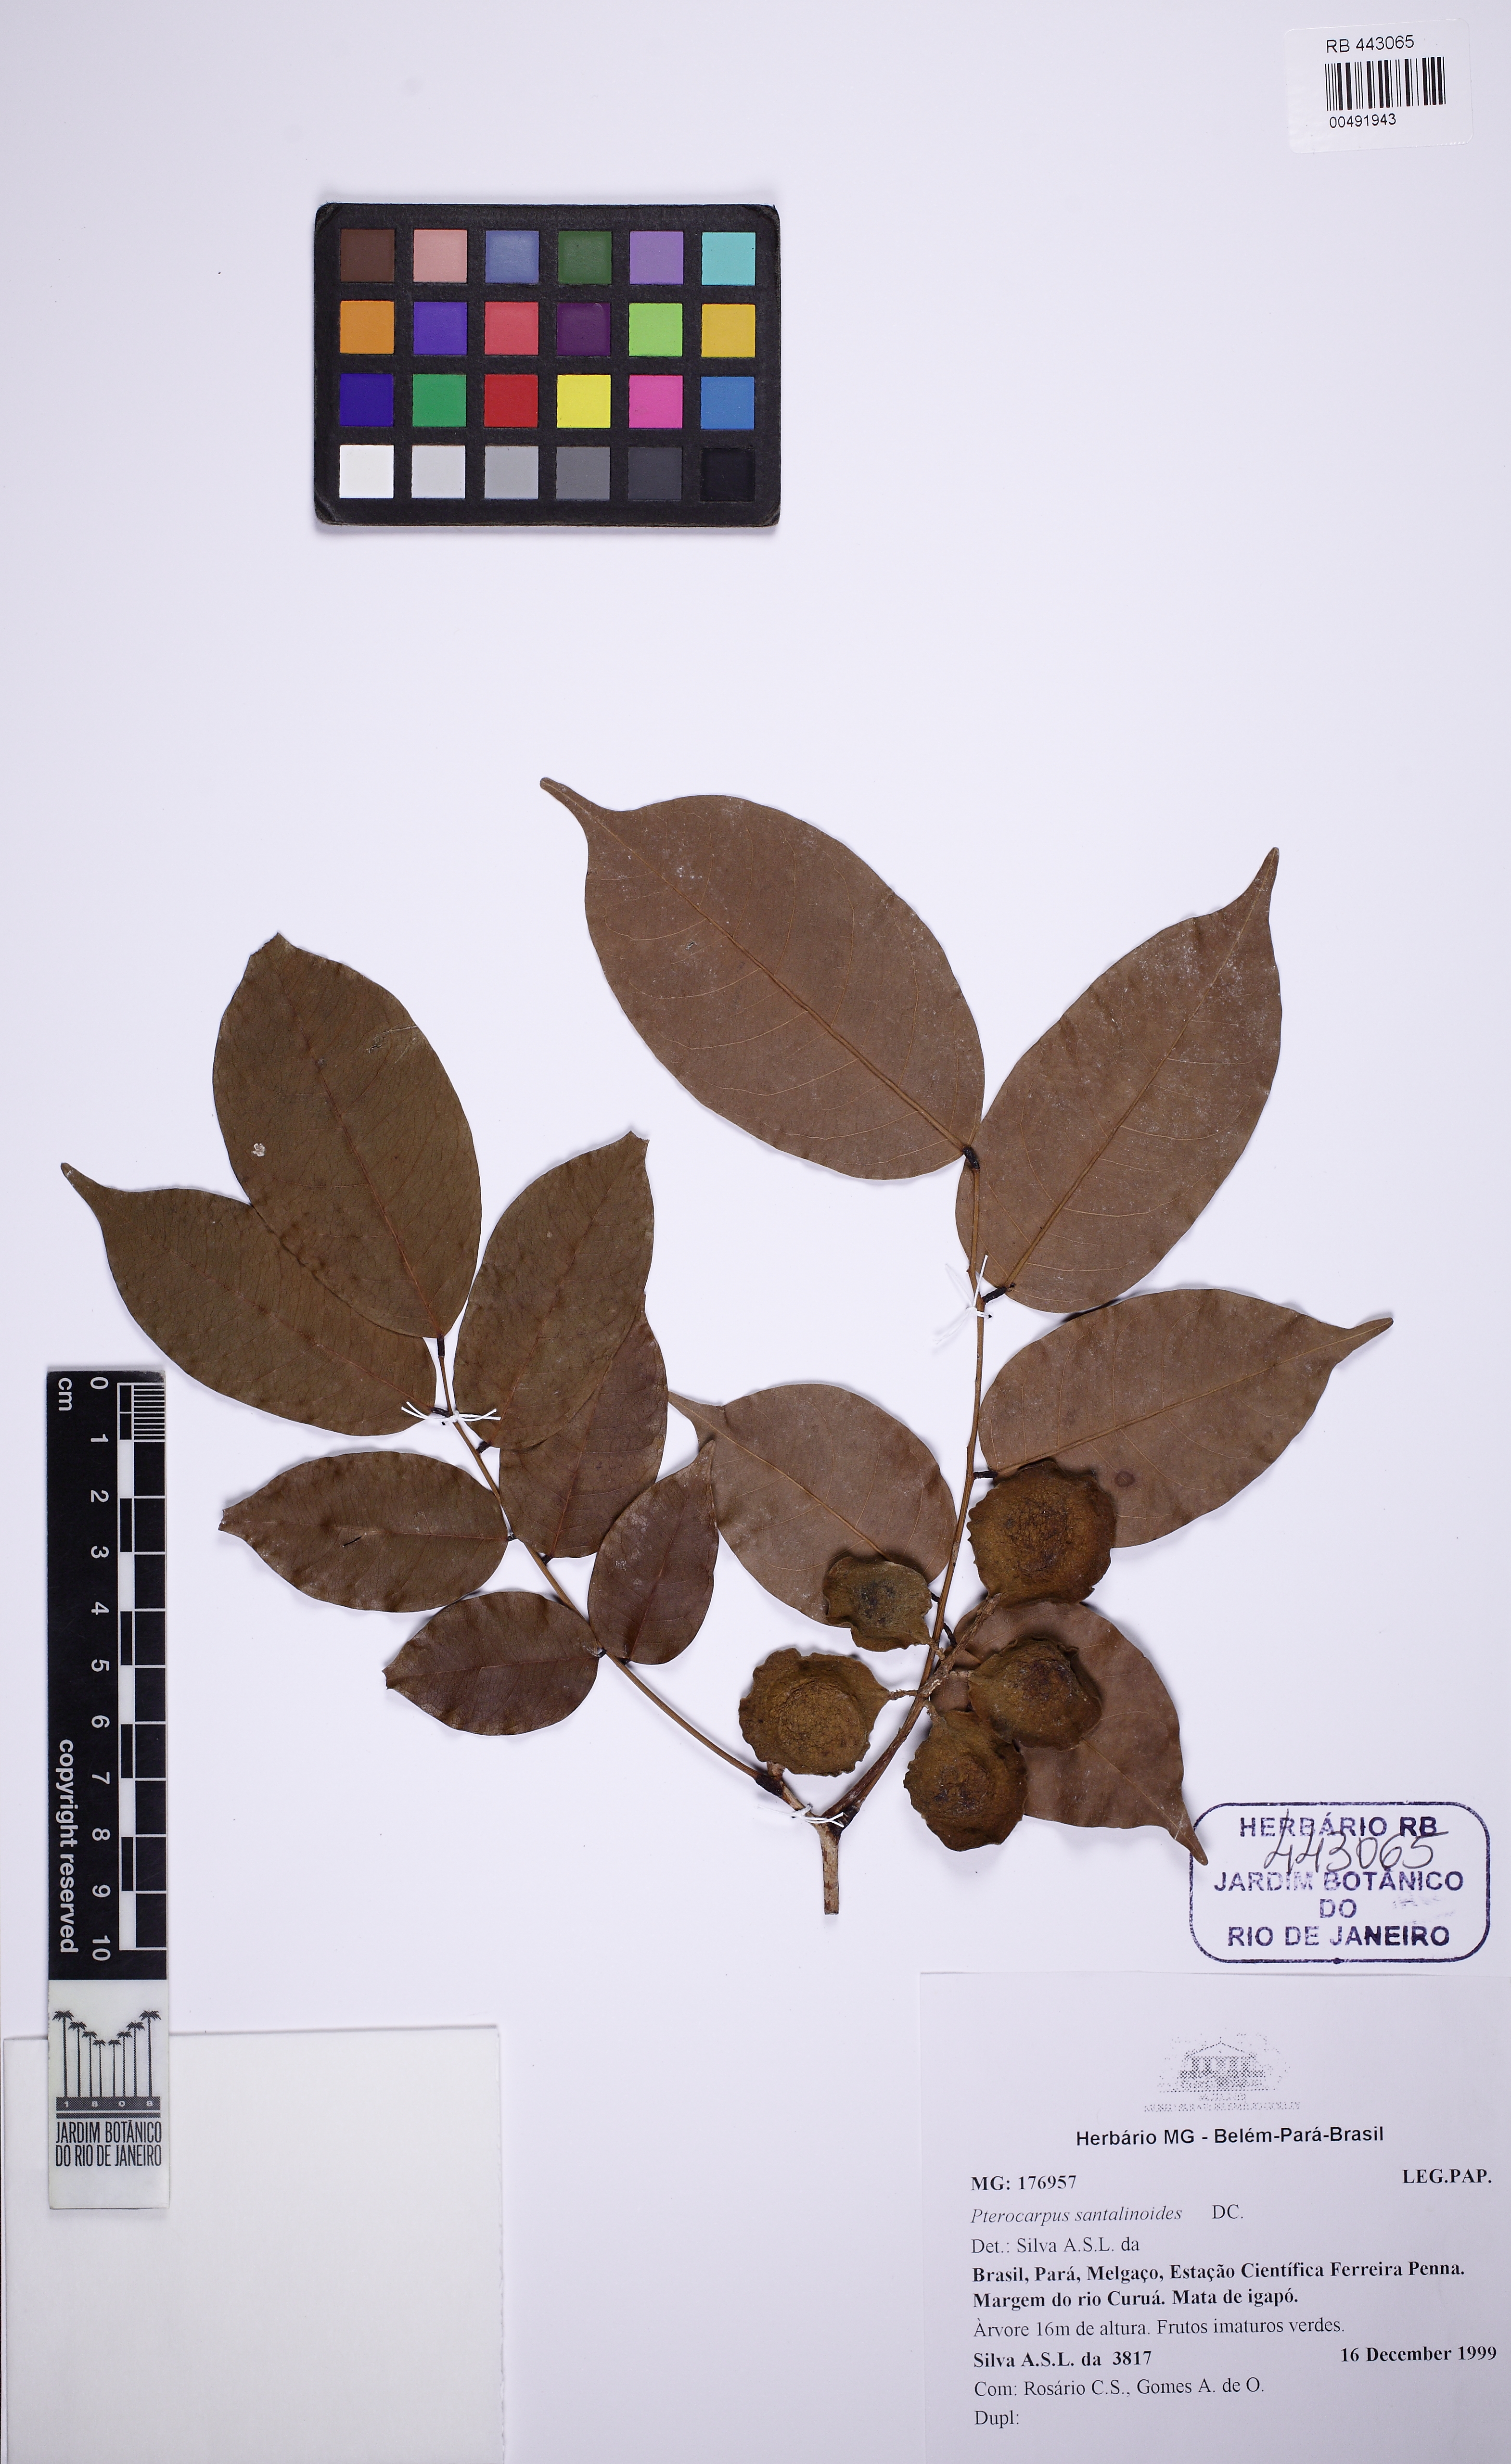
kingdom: Plantae
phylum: Tracheophyta
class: Magnoliopsida
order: Fabales
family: Fabaceae
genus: Pterocarpus
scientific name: Pterocarpus santalinoides
